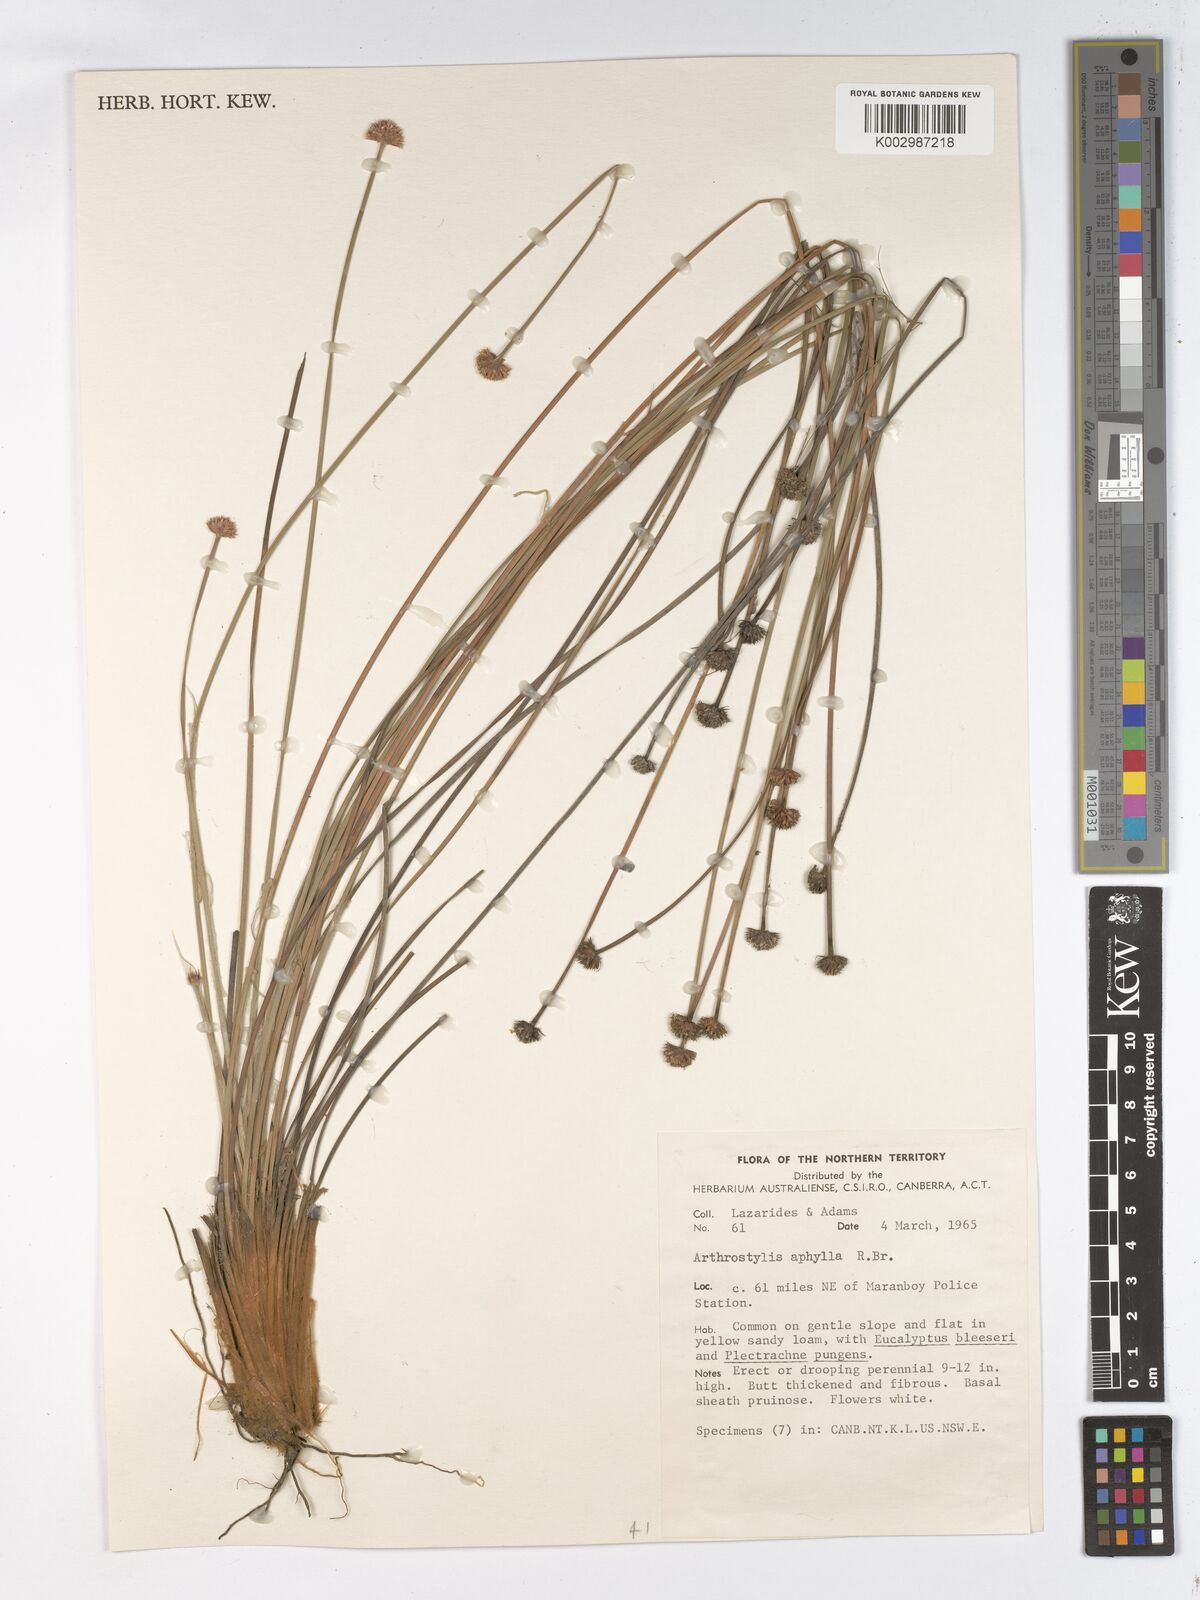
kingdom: Plantae
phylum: Tracheophyta
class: Liliopsida
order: Poales
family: Cyperaceae
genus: Arthrostylis
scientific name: Arthrostylis aphylla
